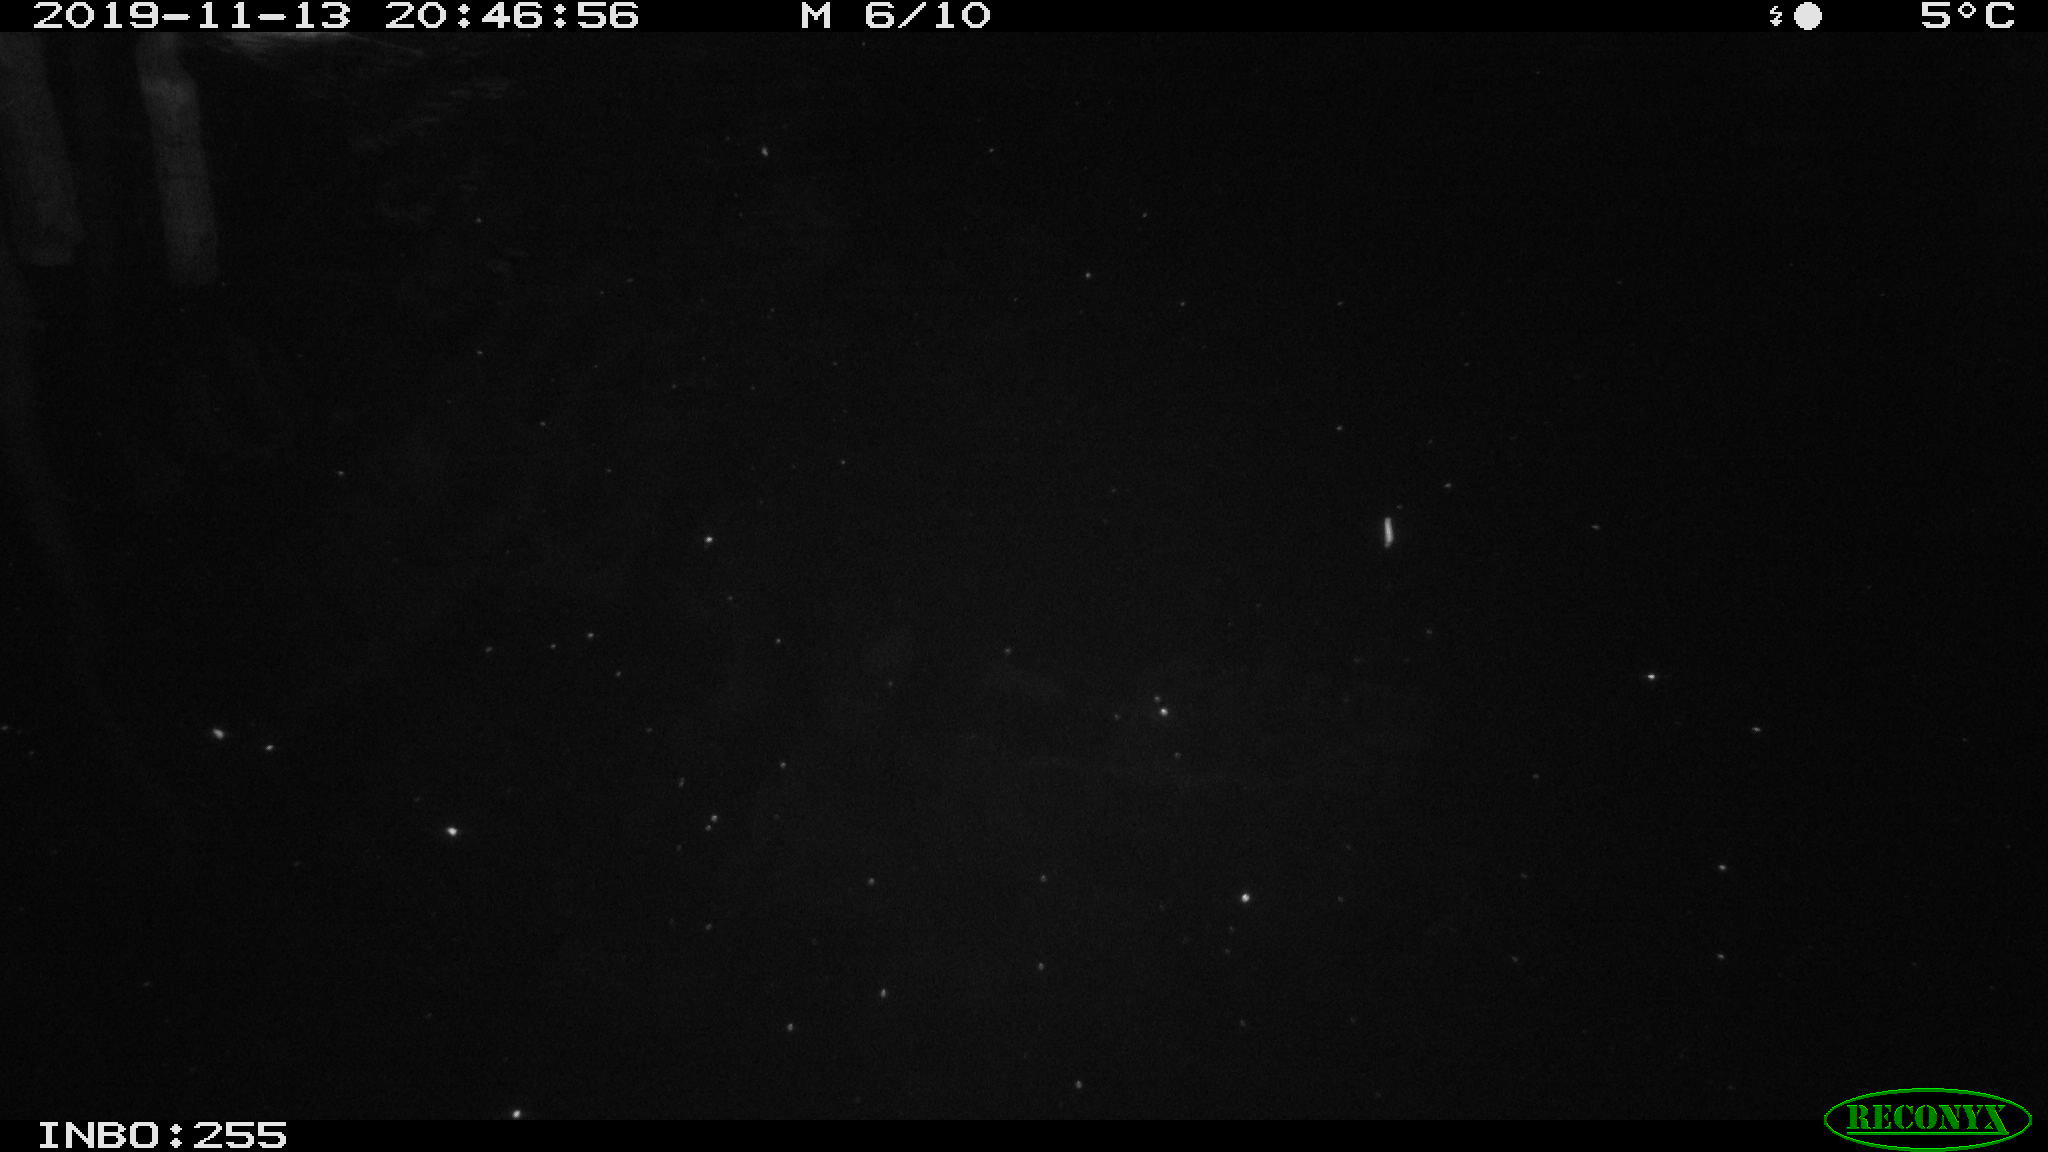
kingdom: Animalia
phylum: Chordata
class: Mammalia
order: Rodentia
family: Muridae
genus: Rattus
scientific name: Rattus norvegicus
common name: Brown rat
